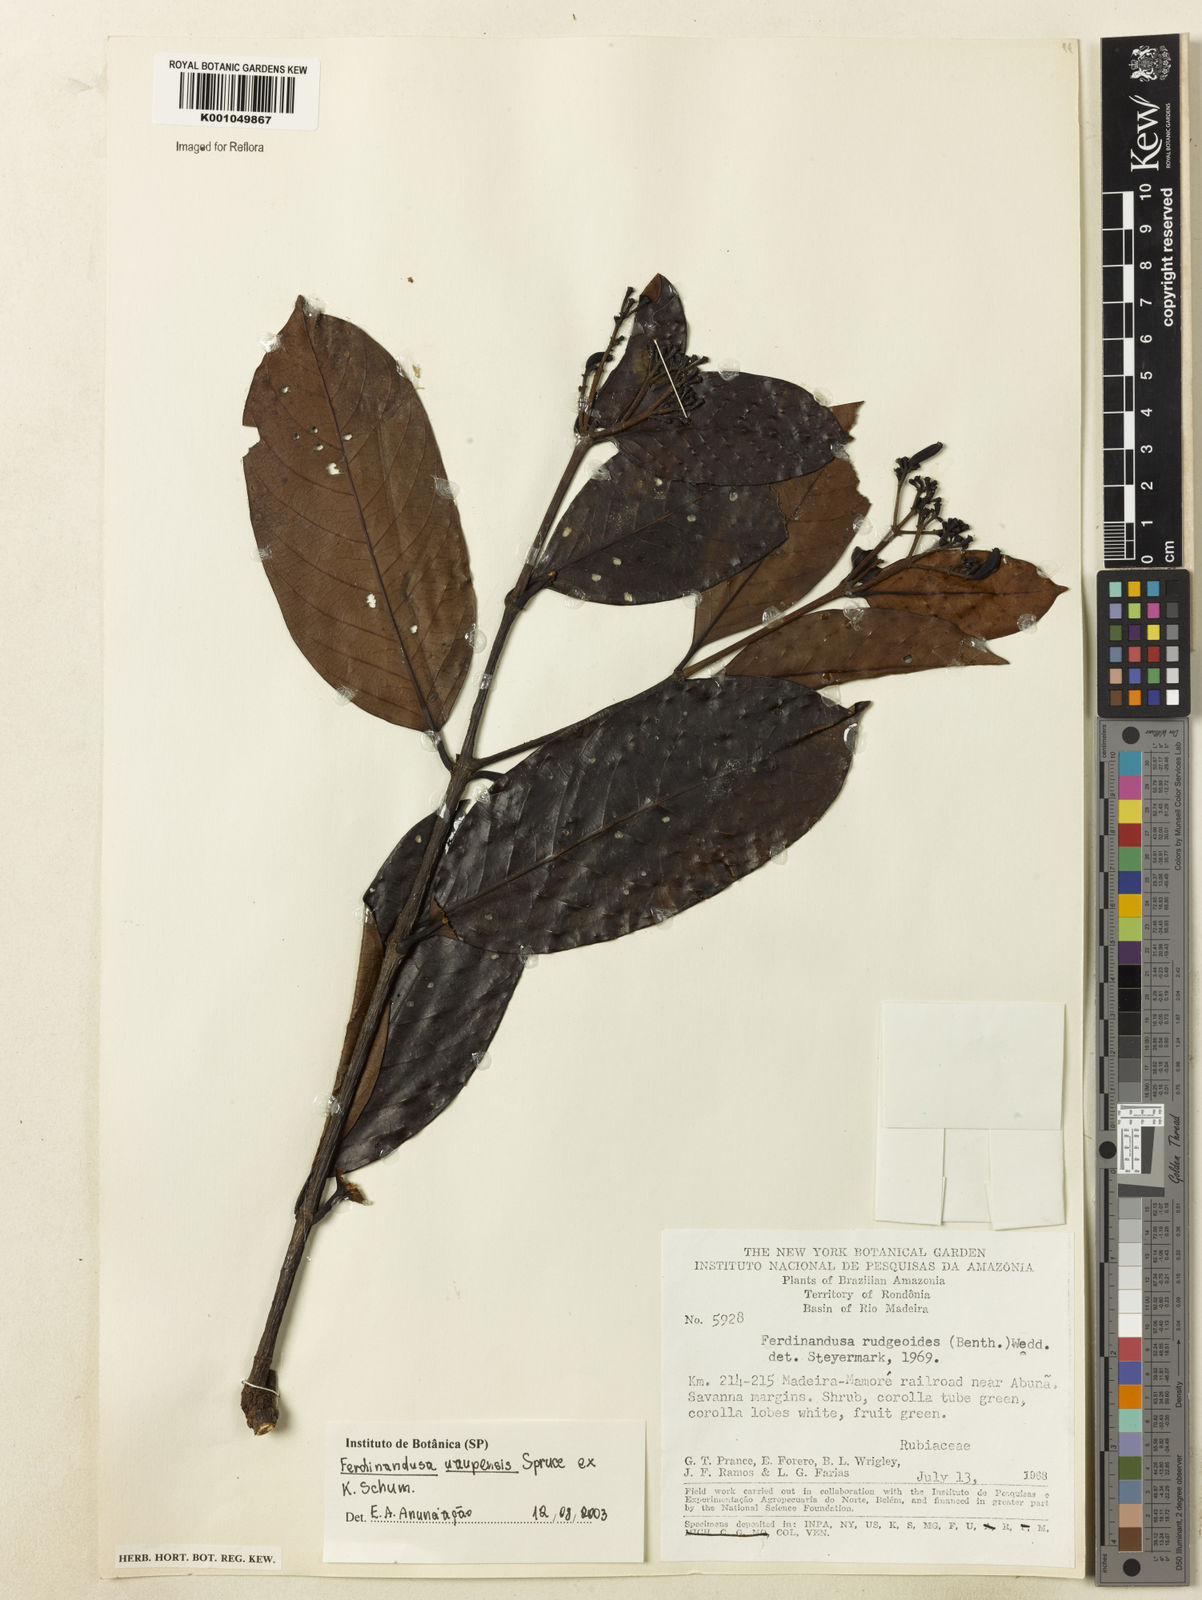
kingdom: Plantae
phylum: Tracheophyta
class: Magnoliopsida
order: Gentianales
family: Rubiaceae
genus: Ferdinandusa
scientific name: Ferdinandusa uaupensis
